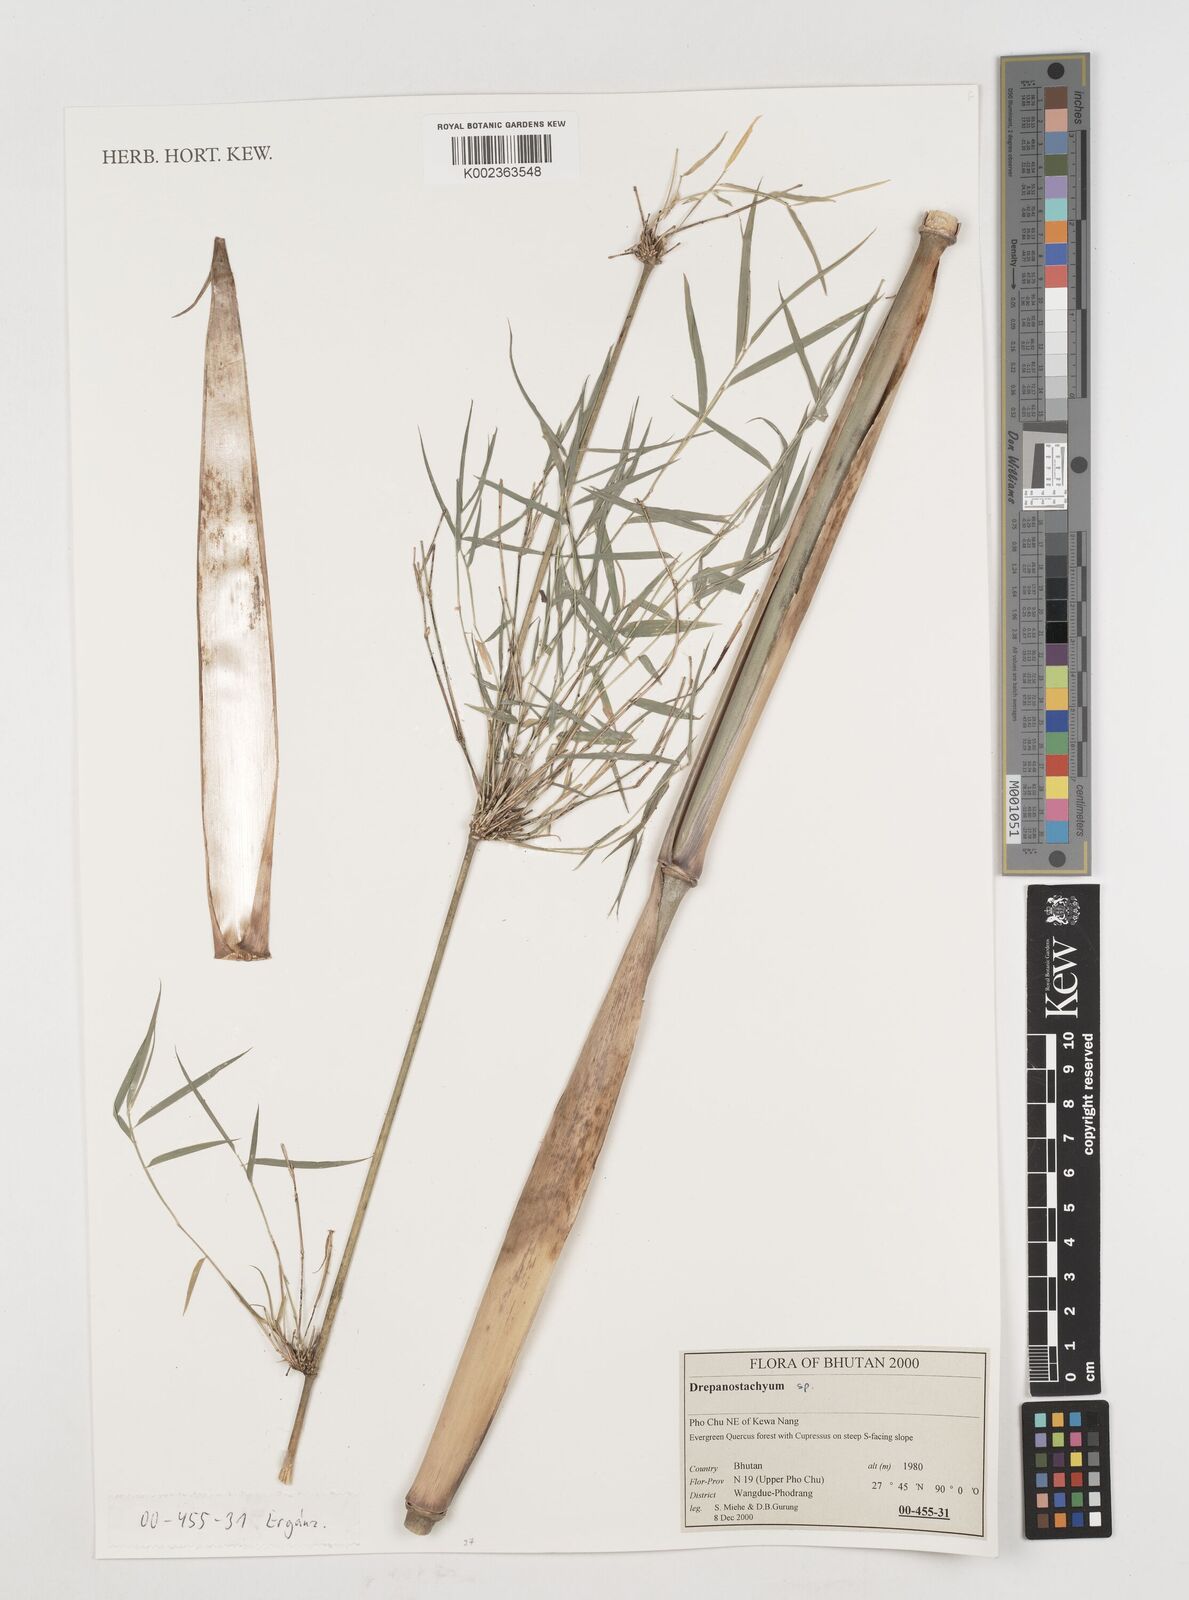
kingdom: Plantae
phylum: Tracheophyta
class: Liliopsida
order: Poales
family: Poaceae
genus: Himalayacalamus
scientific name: Himalayacalamus falconeri
